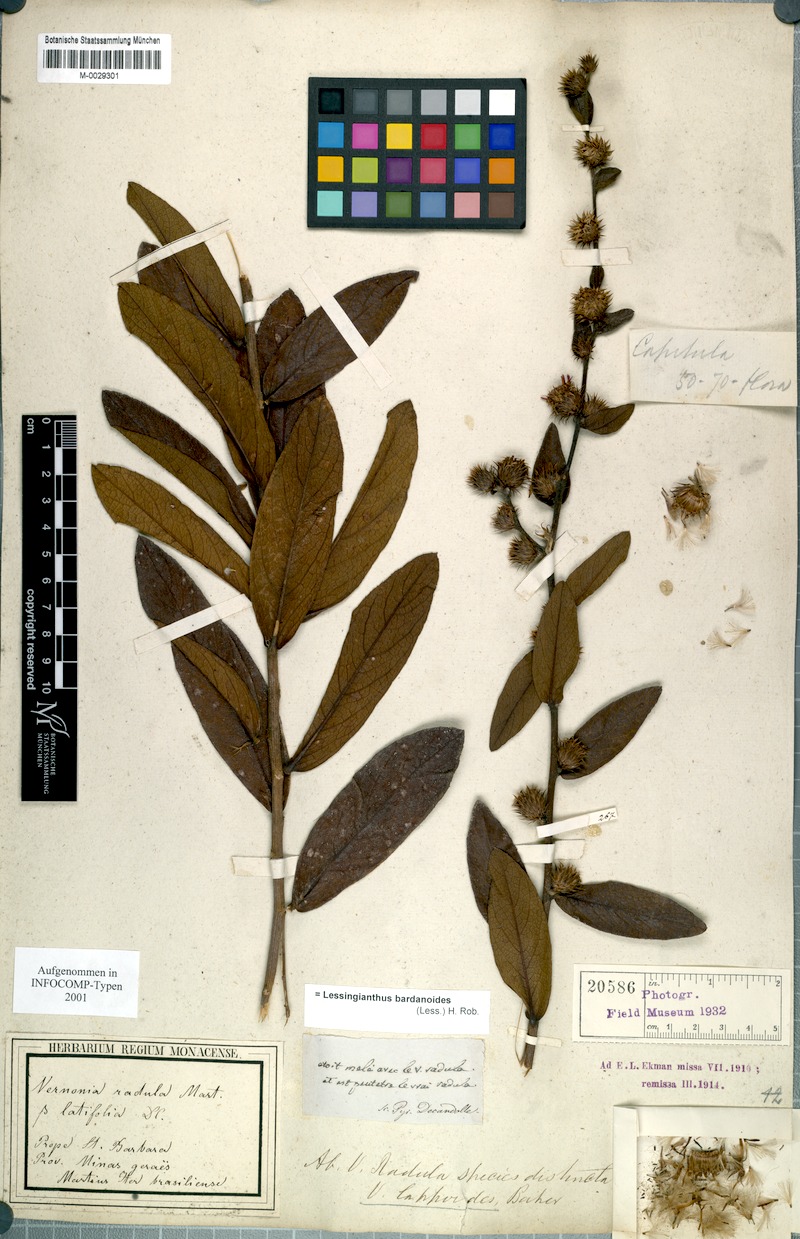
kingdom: Plantae
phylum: Tracheophyta
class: Magnoliopsida
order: Asterales
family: Asteraceae
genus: Lessingianthus
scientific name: Lessingianthus bardanioides
